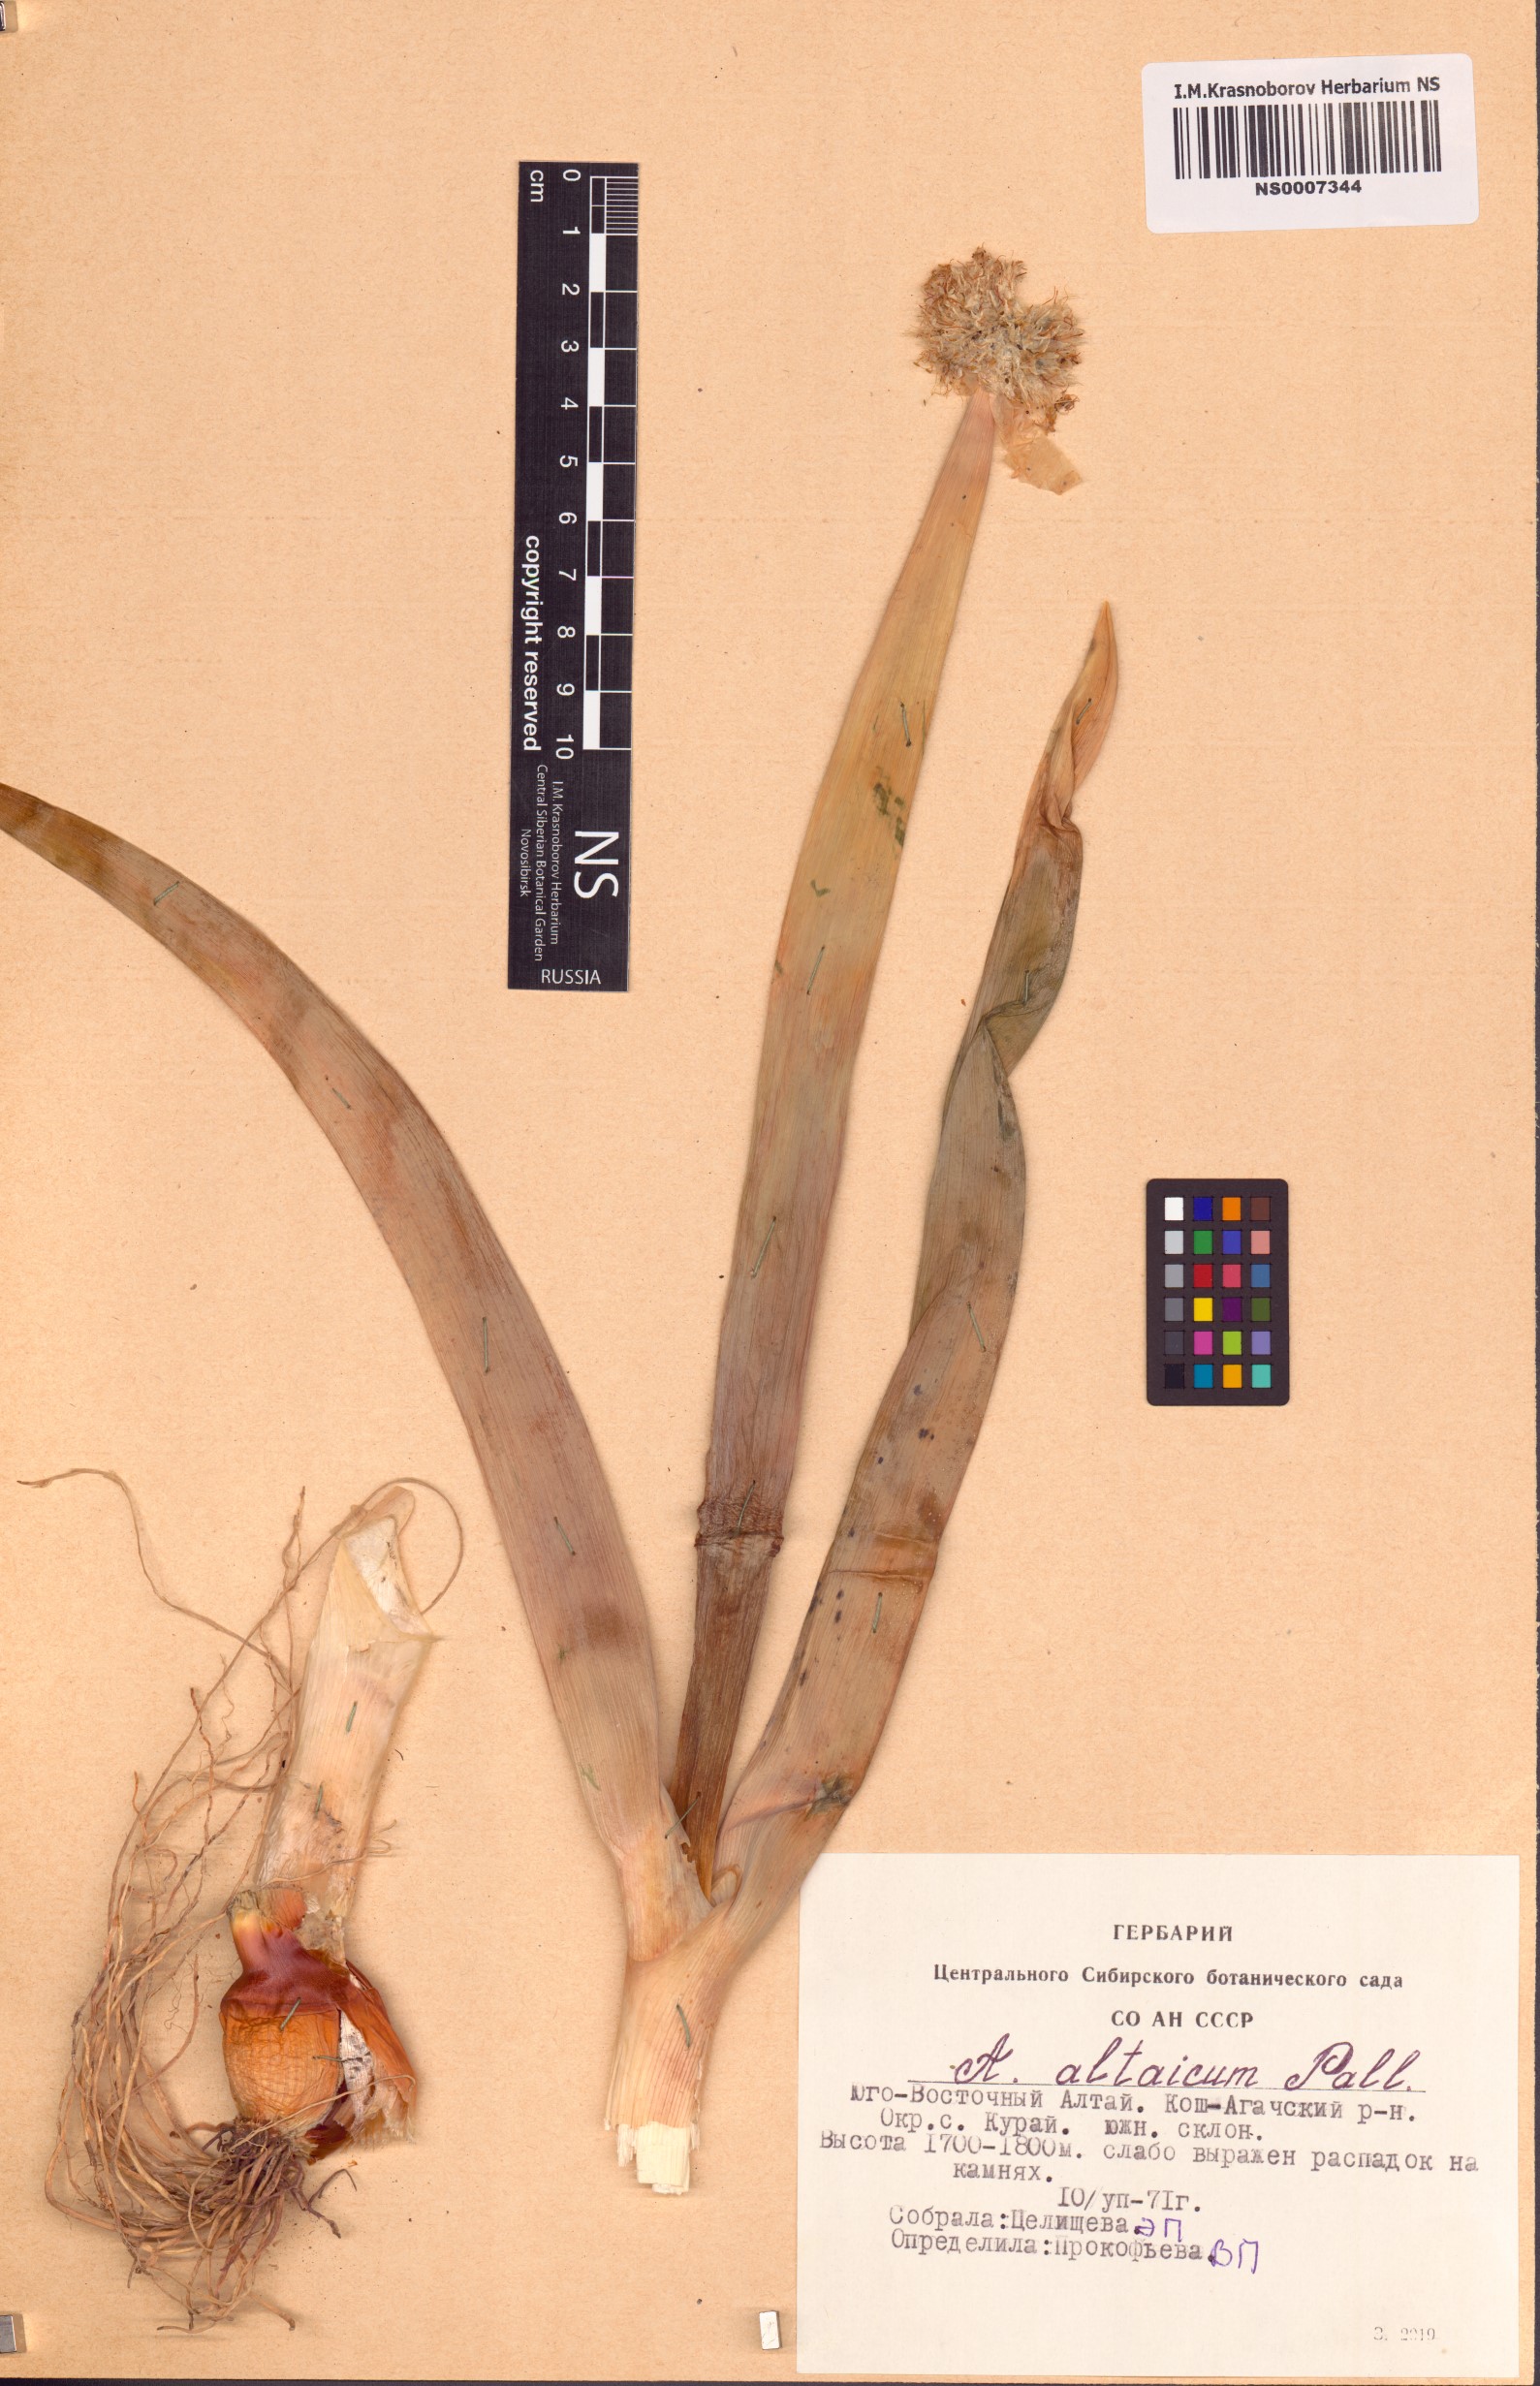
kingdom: Plantae
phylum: Tracheophyta
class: Liliopsida
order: Asparagales
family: Amaryllidaceae
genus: Allium
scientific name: Allium altaicum
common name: Altai onion
